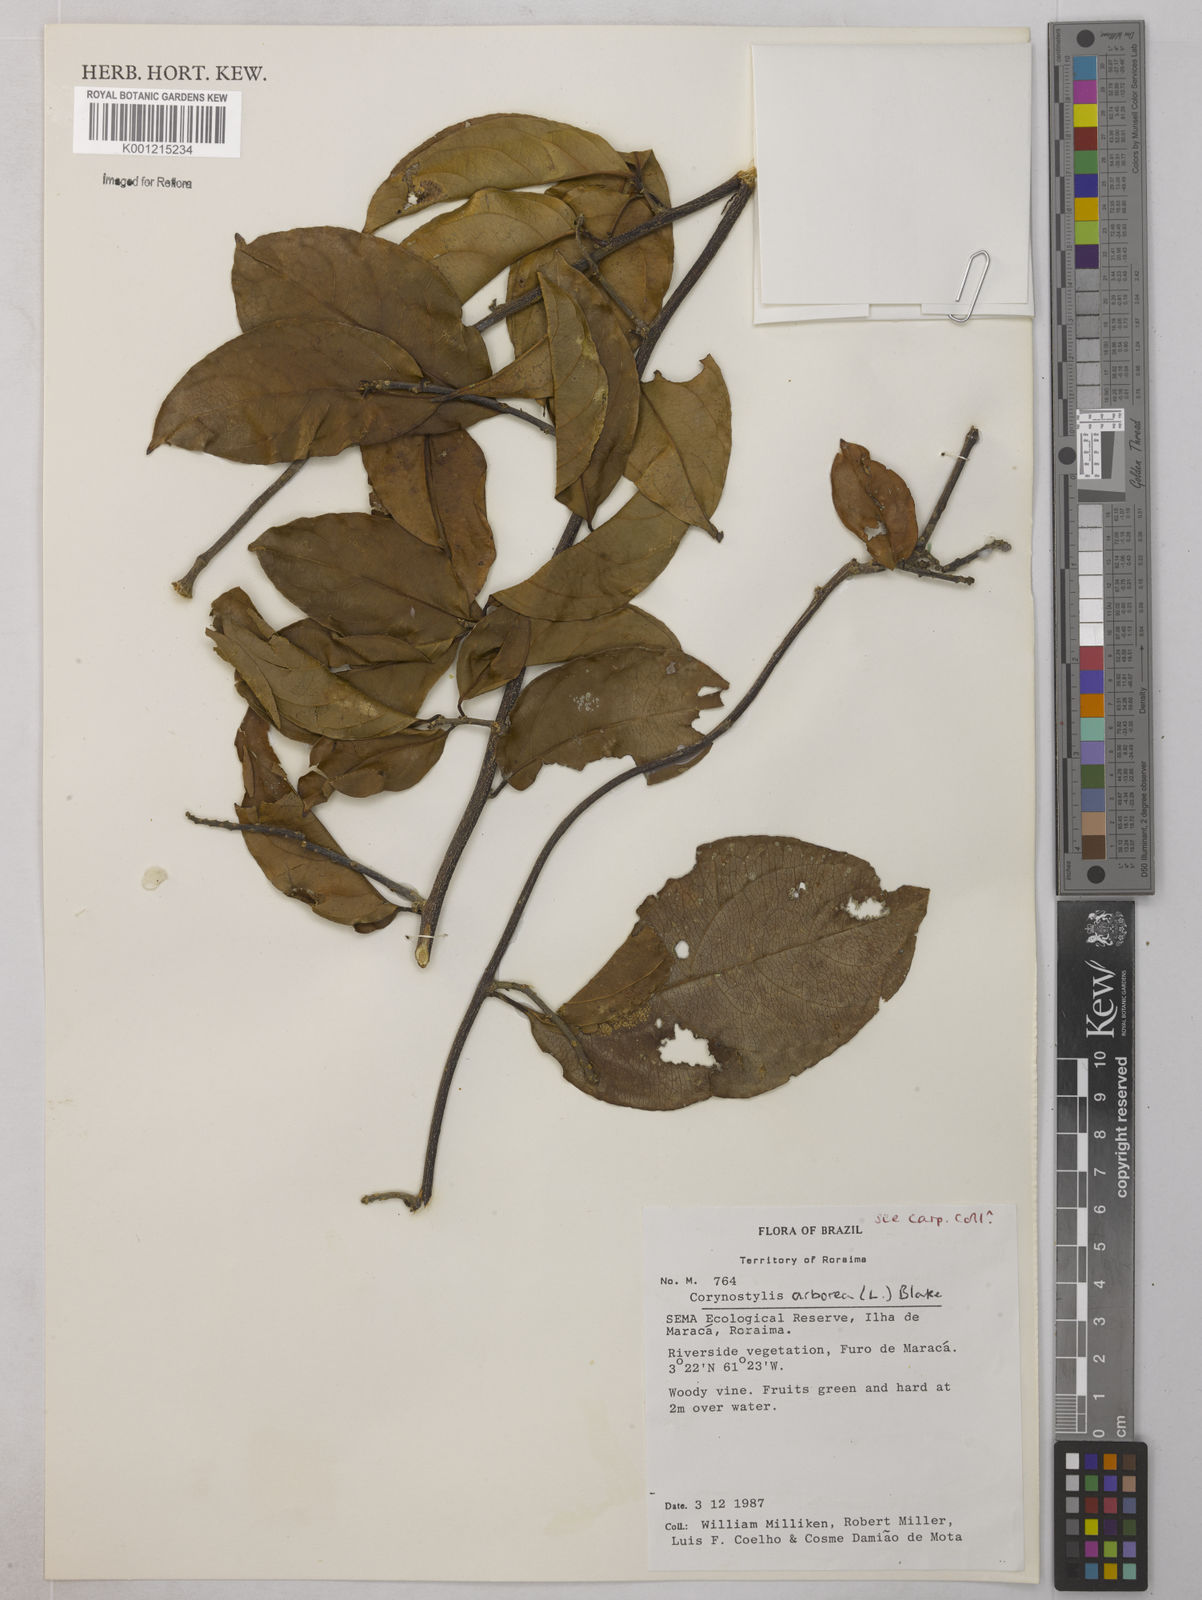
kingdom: Plantae
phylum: Tracheophyta
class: Magnoliopsida
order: Malpighiales
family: Violaceae
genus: Calyptrion
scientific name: Calyptrion arboreum
